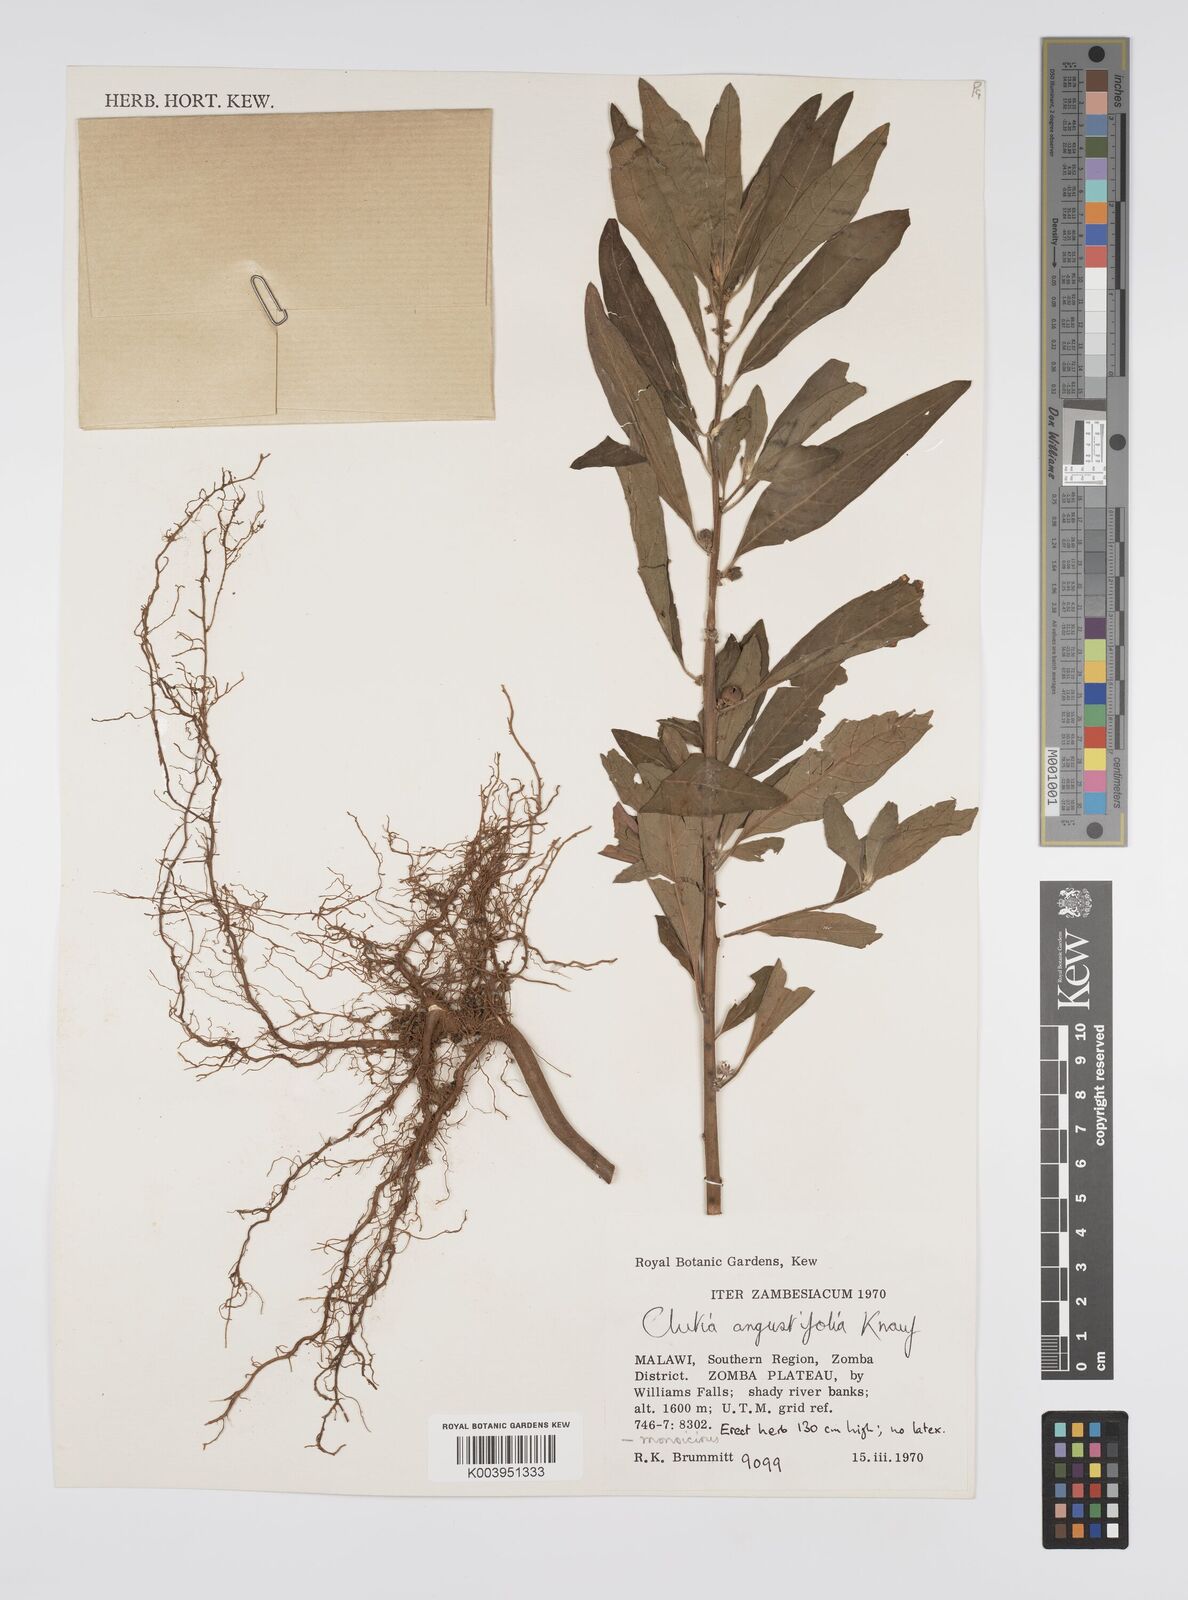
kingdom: Plantae
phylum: Tracheophyta
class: Magnoliopsida
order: Malpighiales
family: Peraceae
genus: Clutia
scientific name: Clutia angustifolia
